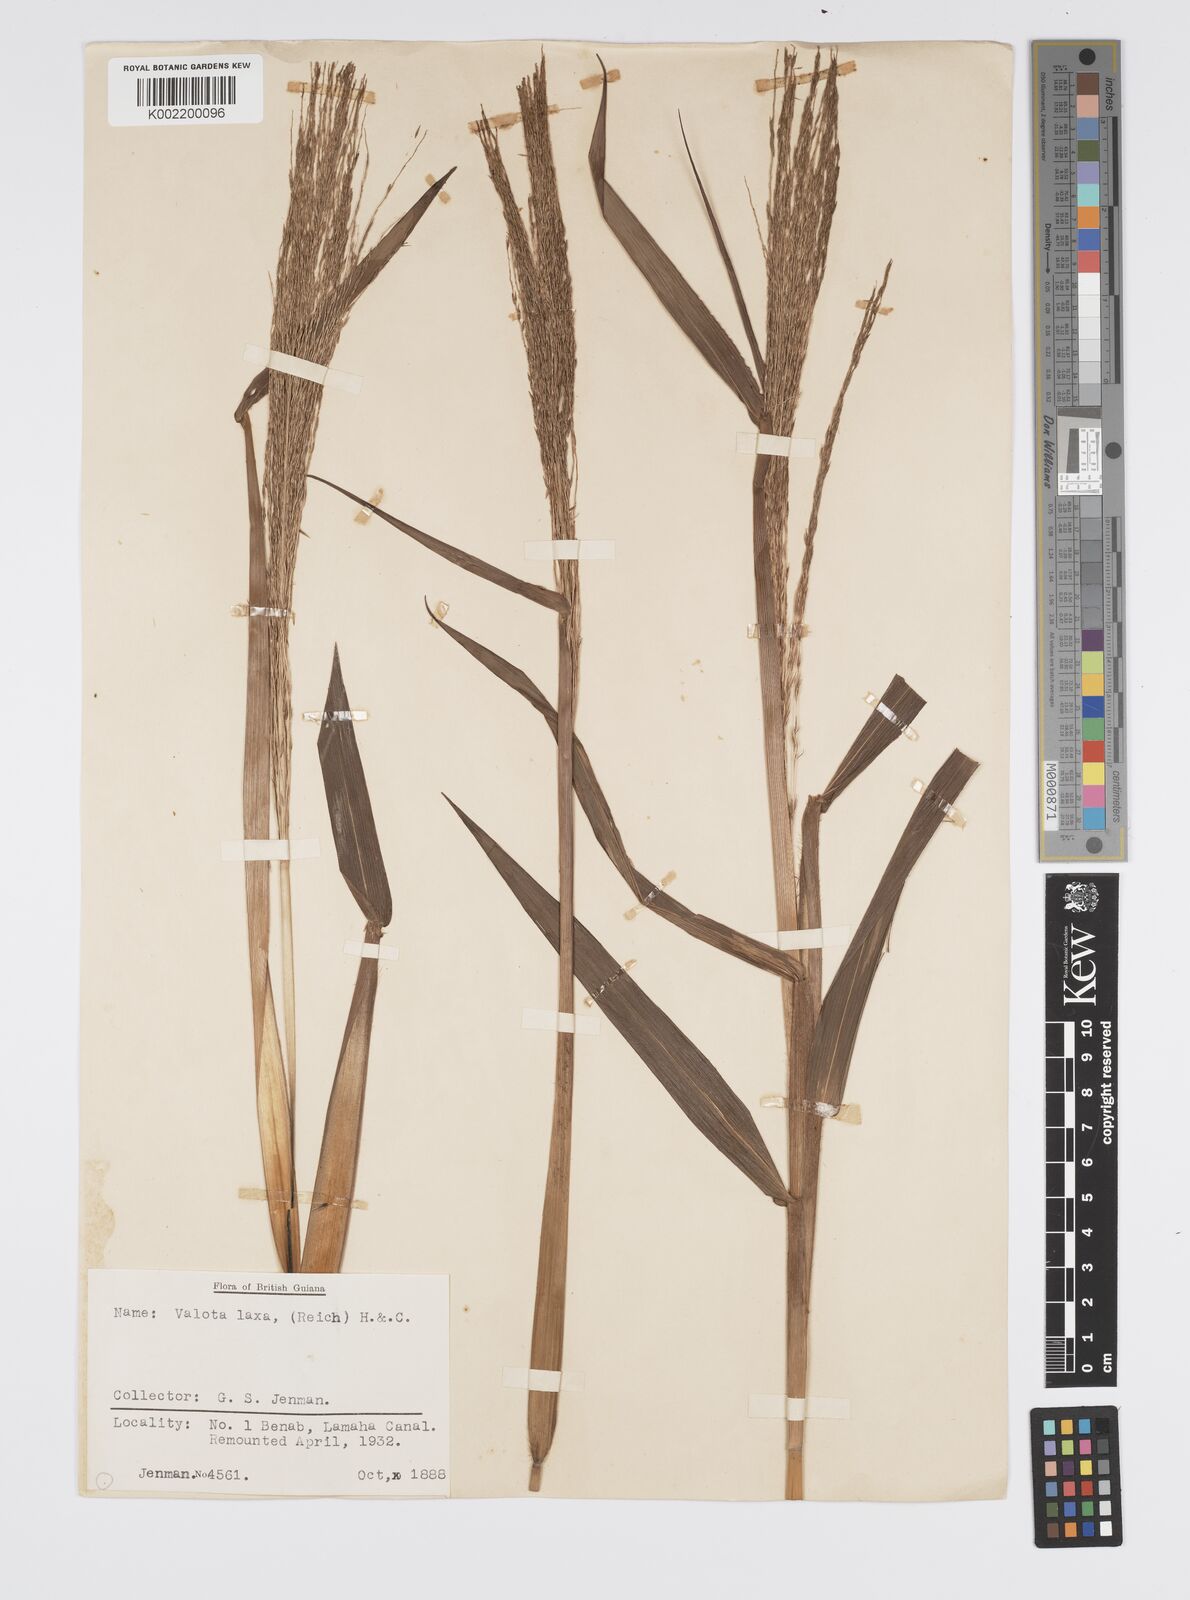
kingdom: Plantae
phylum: Tracheophyta
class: Liliopsida
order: Poales
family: Poaceae
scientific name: Poaceae
